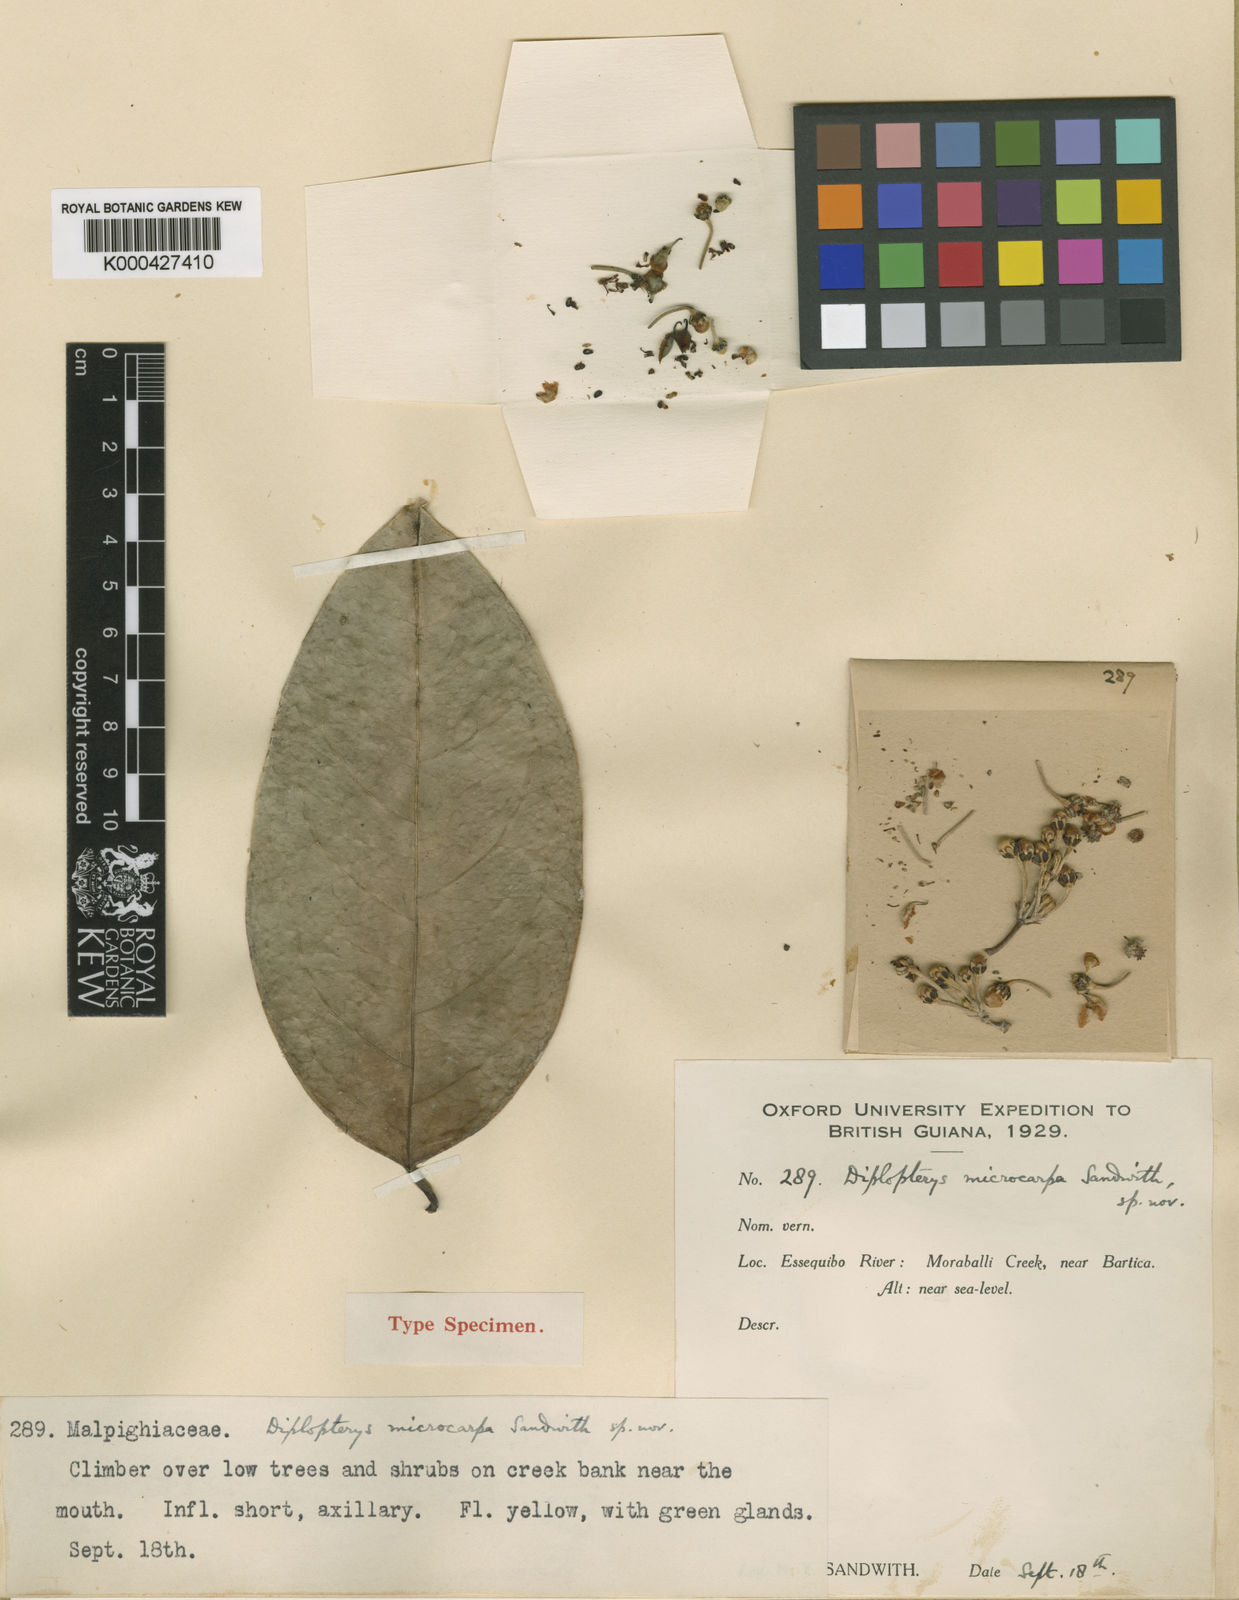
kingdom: Plantae
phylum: Tracheophyta
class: Magnoliopsida
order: Malpighiales
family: Malpighiaceae
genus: Mascagnia
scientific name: Mascagnia microcarpa
